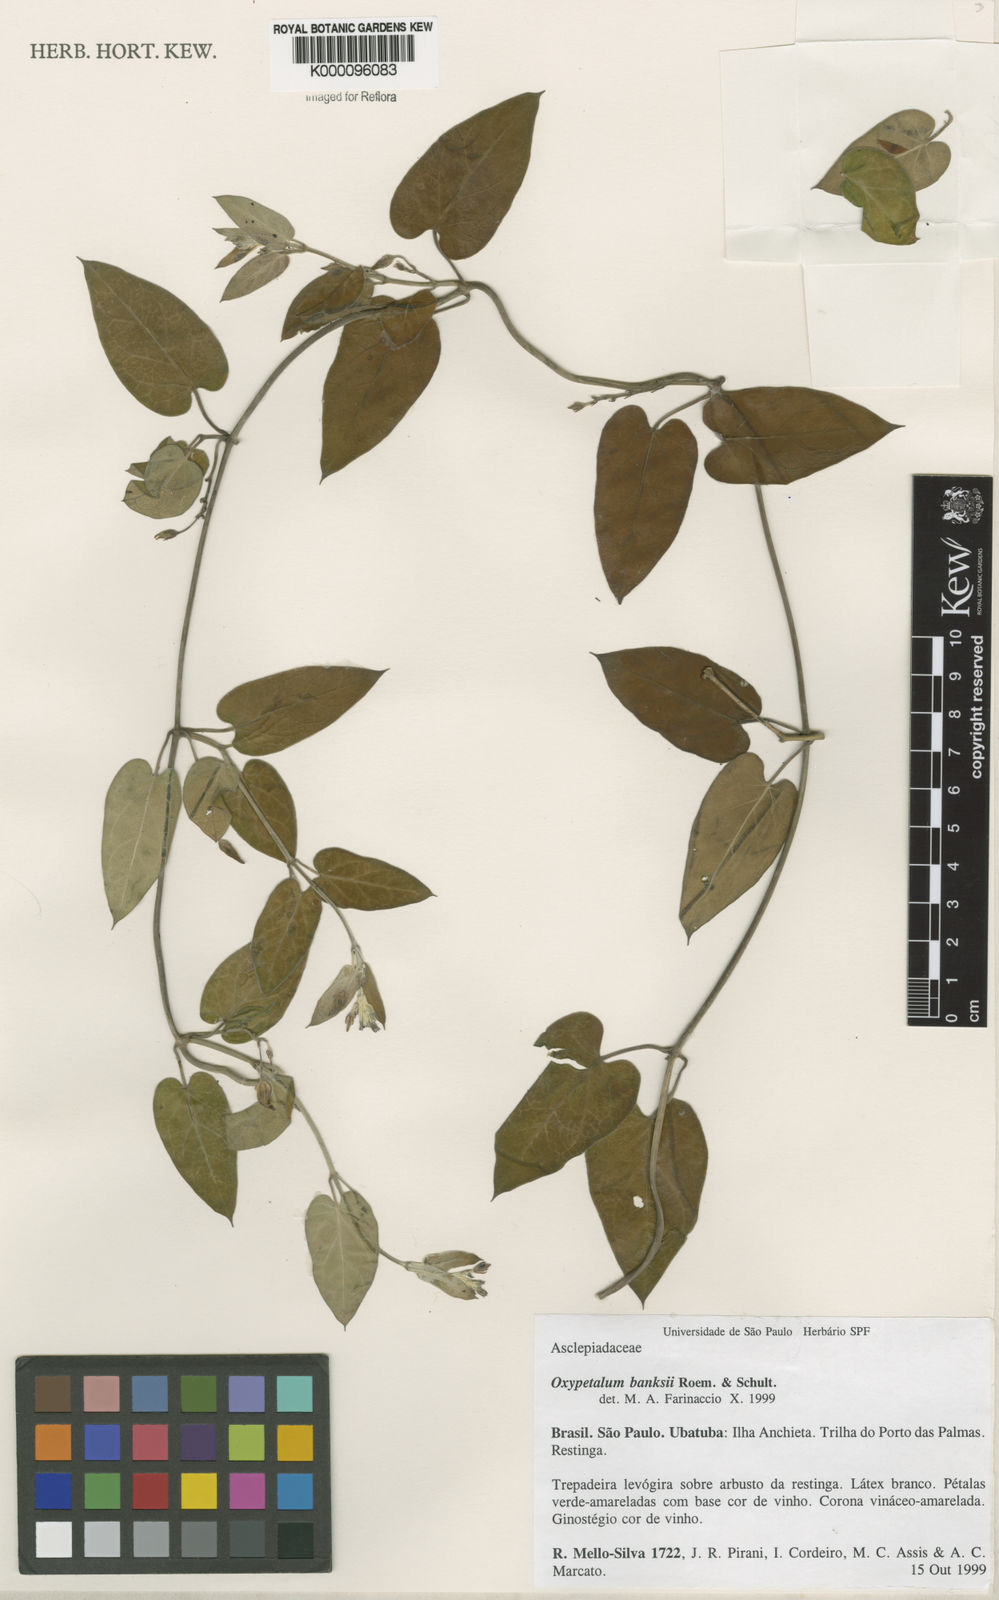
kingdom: Plantae
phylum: Tracheophyta
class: Magnoliopsida
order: Gentianales
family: Apocynaceae
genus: Oxypetalum
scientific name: Oxypetalum banksii
